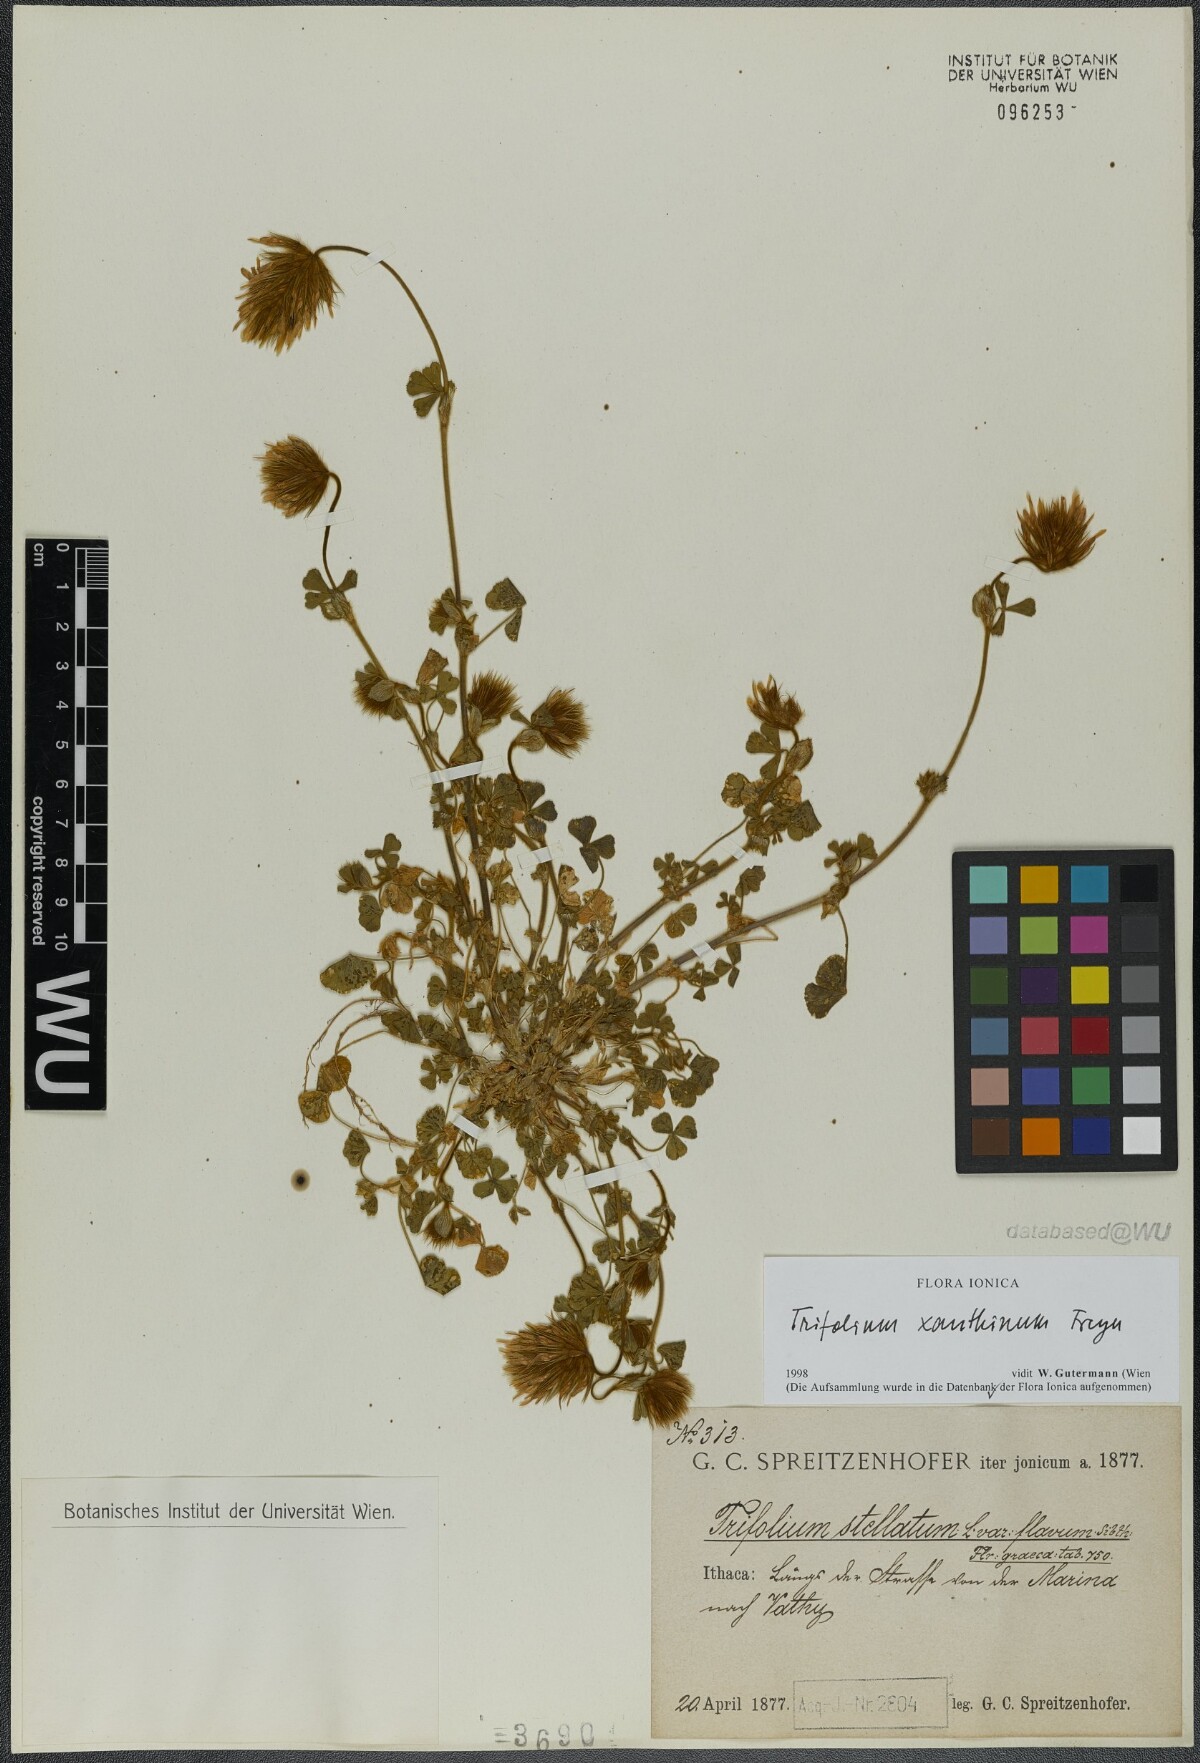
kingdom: Plantae
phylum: Tracheophyta
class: Magnoliopsida
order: Fabales
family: Fabaceae
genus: Trifolium
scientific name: Trifolium xanthinum
